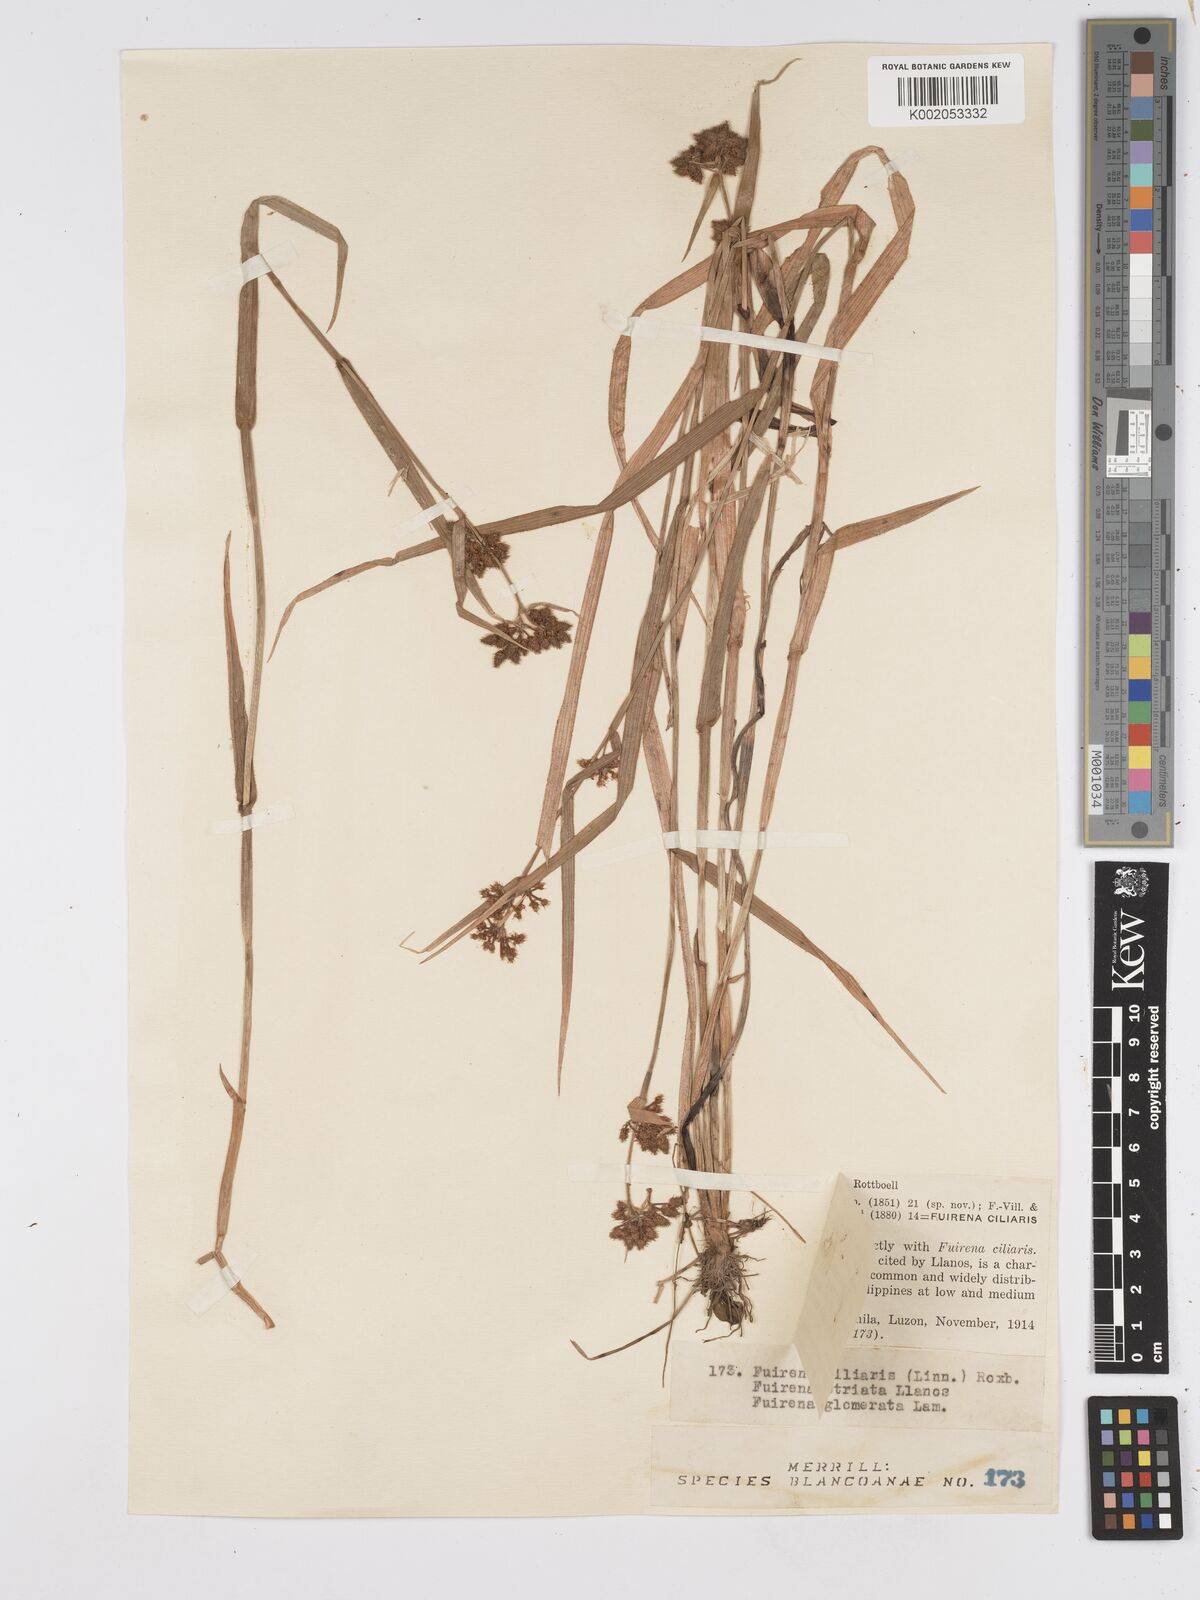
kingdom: Plantae
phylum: Tracheophyta
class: Liliopsida
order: Poales
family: Cyperaceae
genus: Fuirena
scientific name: Fuirena ciliaris
